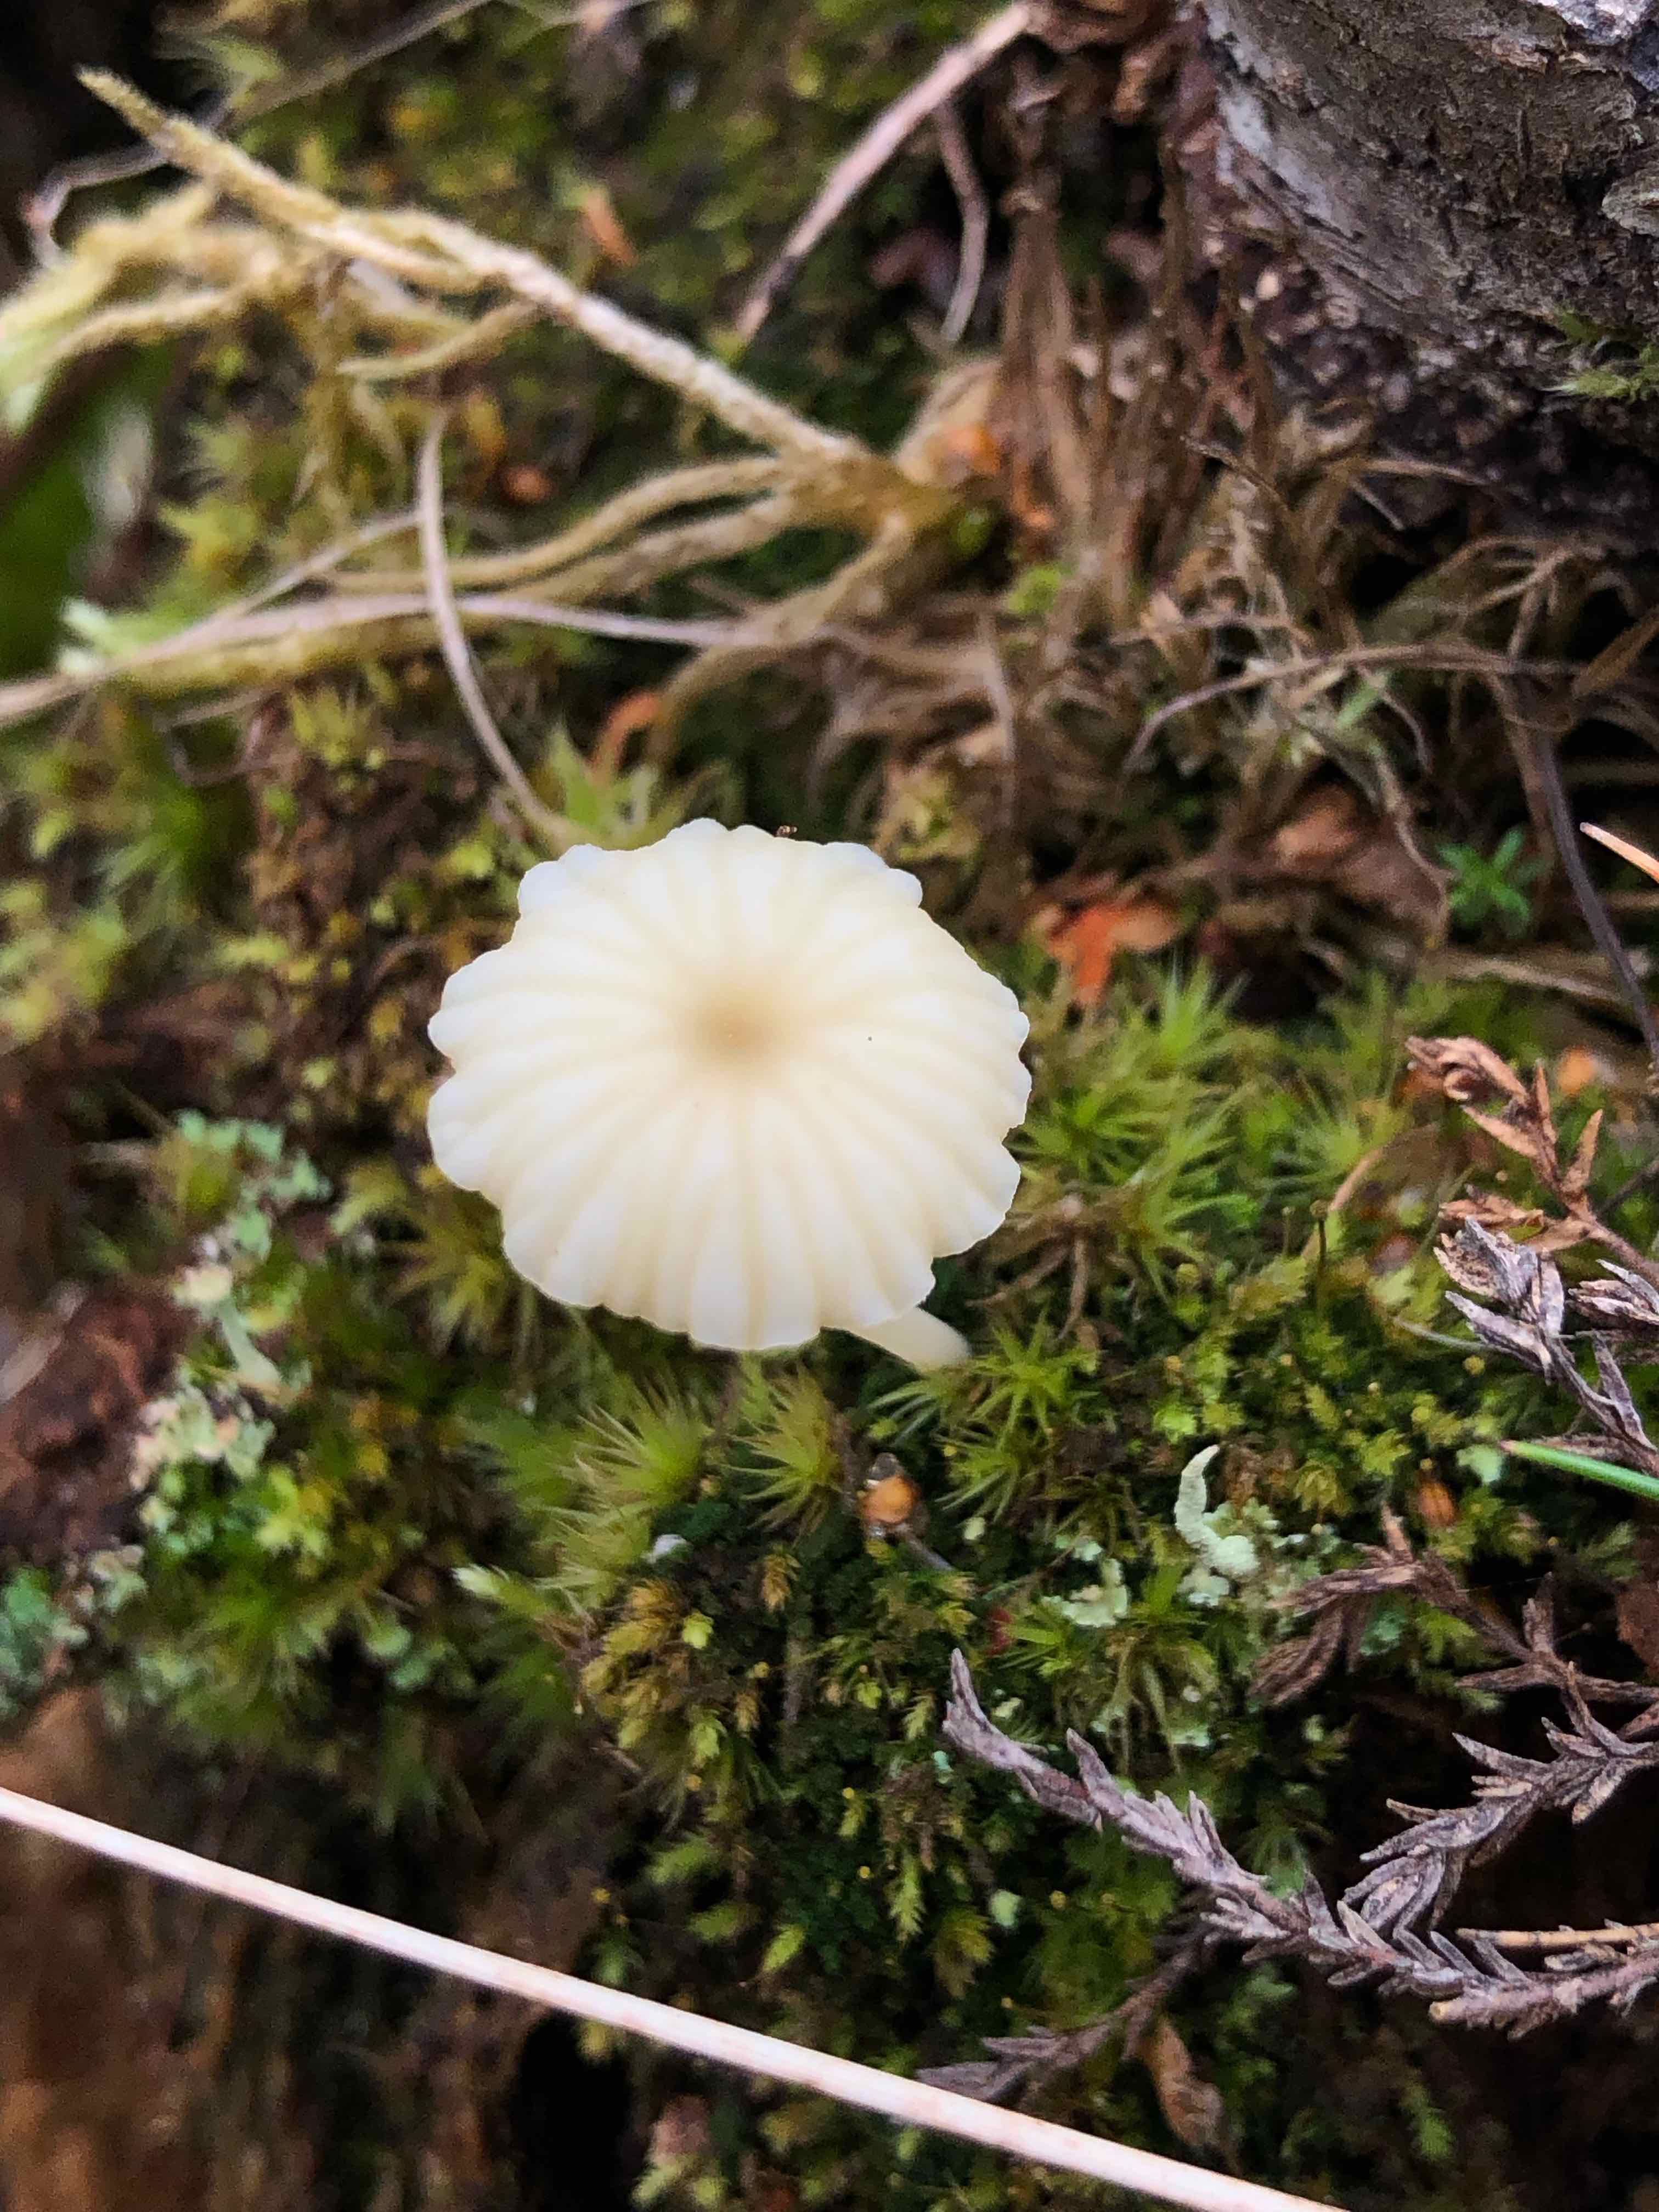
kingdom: Fungi
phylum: Basidiomycota
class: Agaricomycetes
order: Agaricales
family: Hygrophoraceae
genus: Lichenomphalia
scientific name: Lichenomphalia umbellifera
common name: tørve-lavhat
